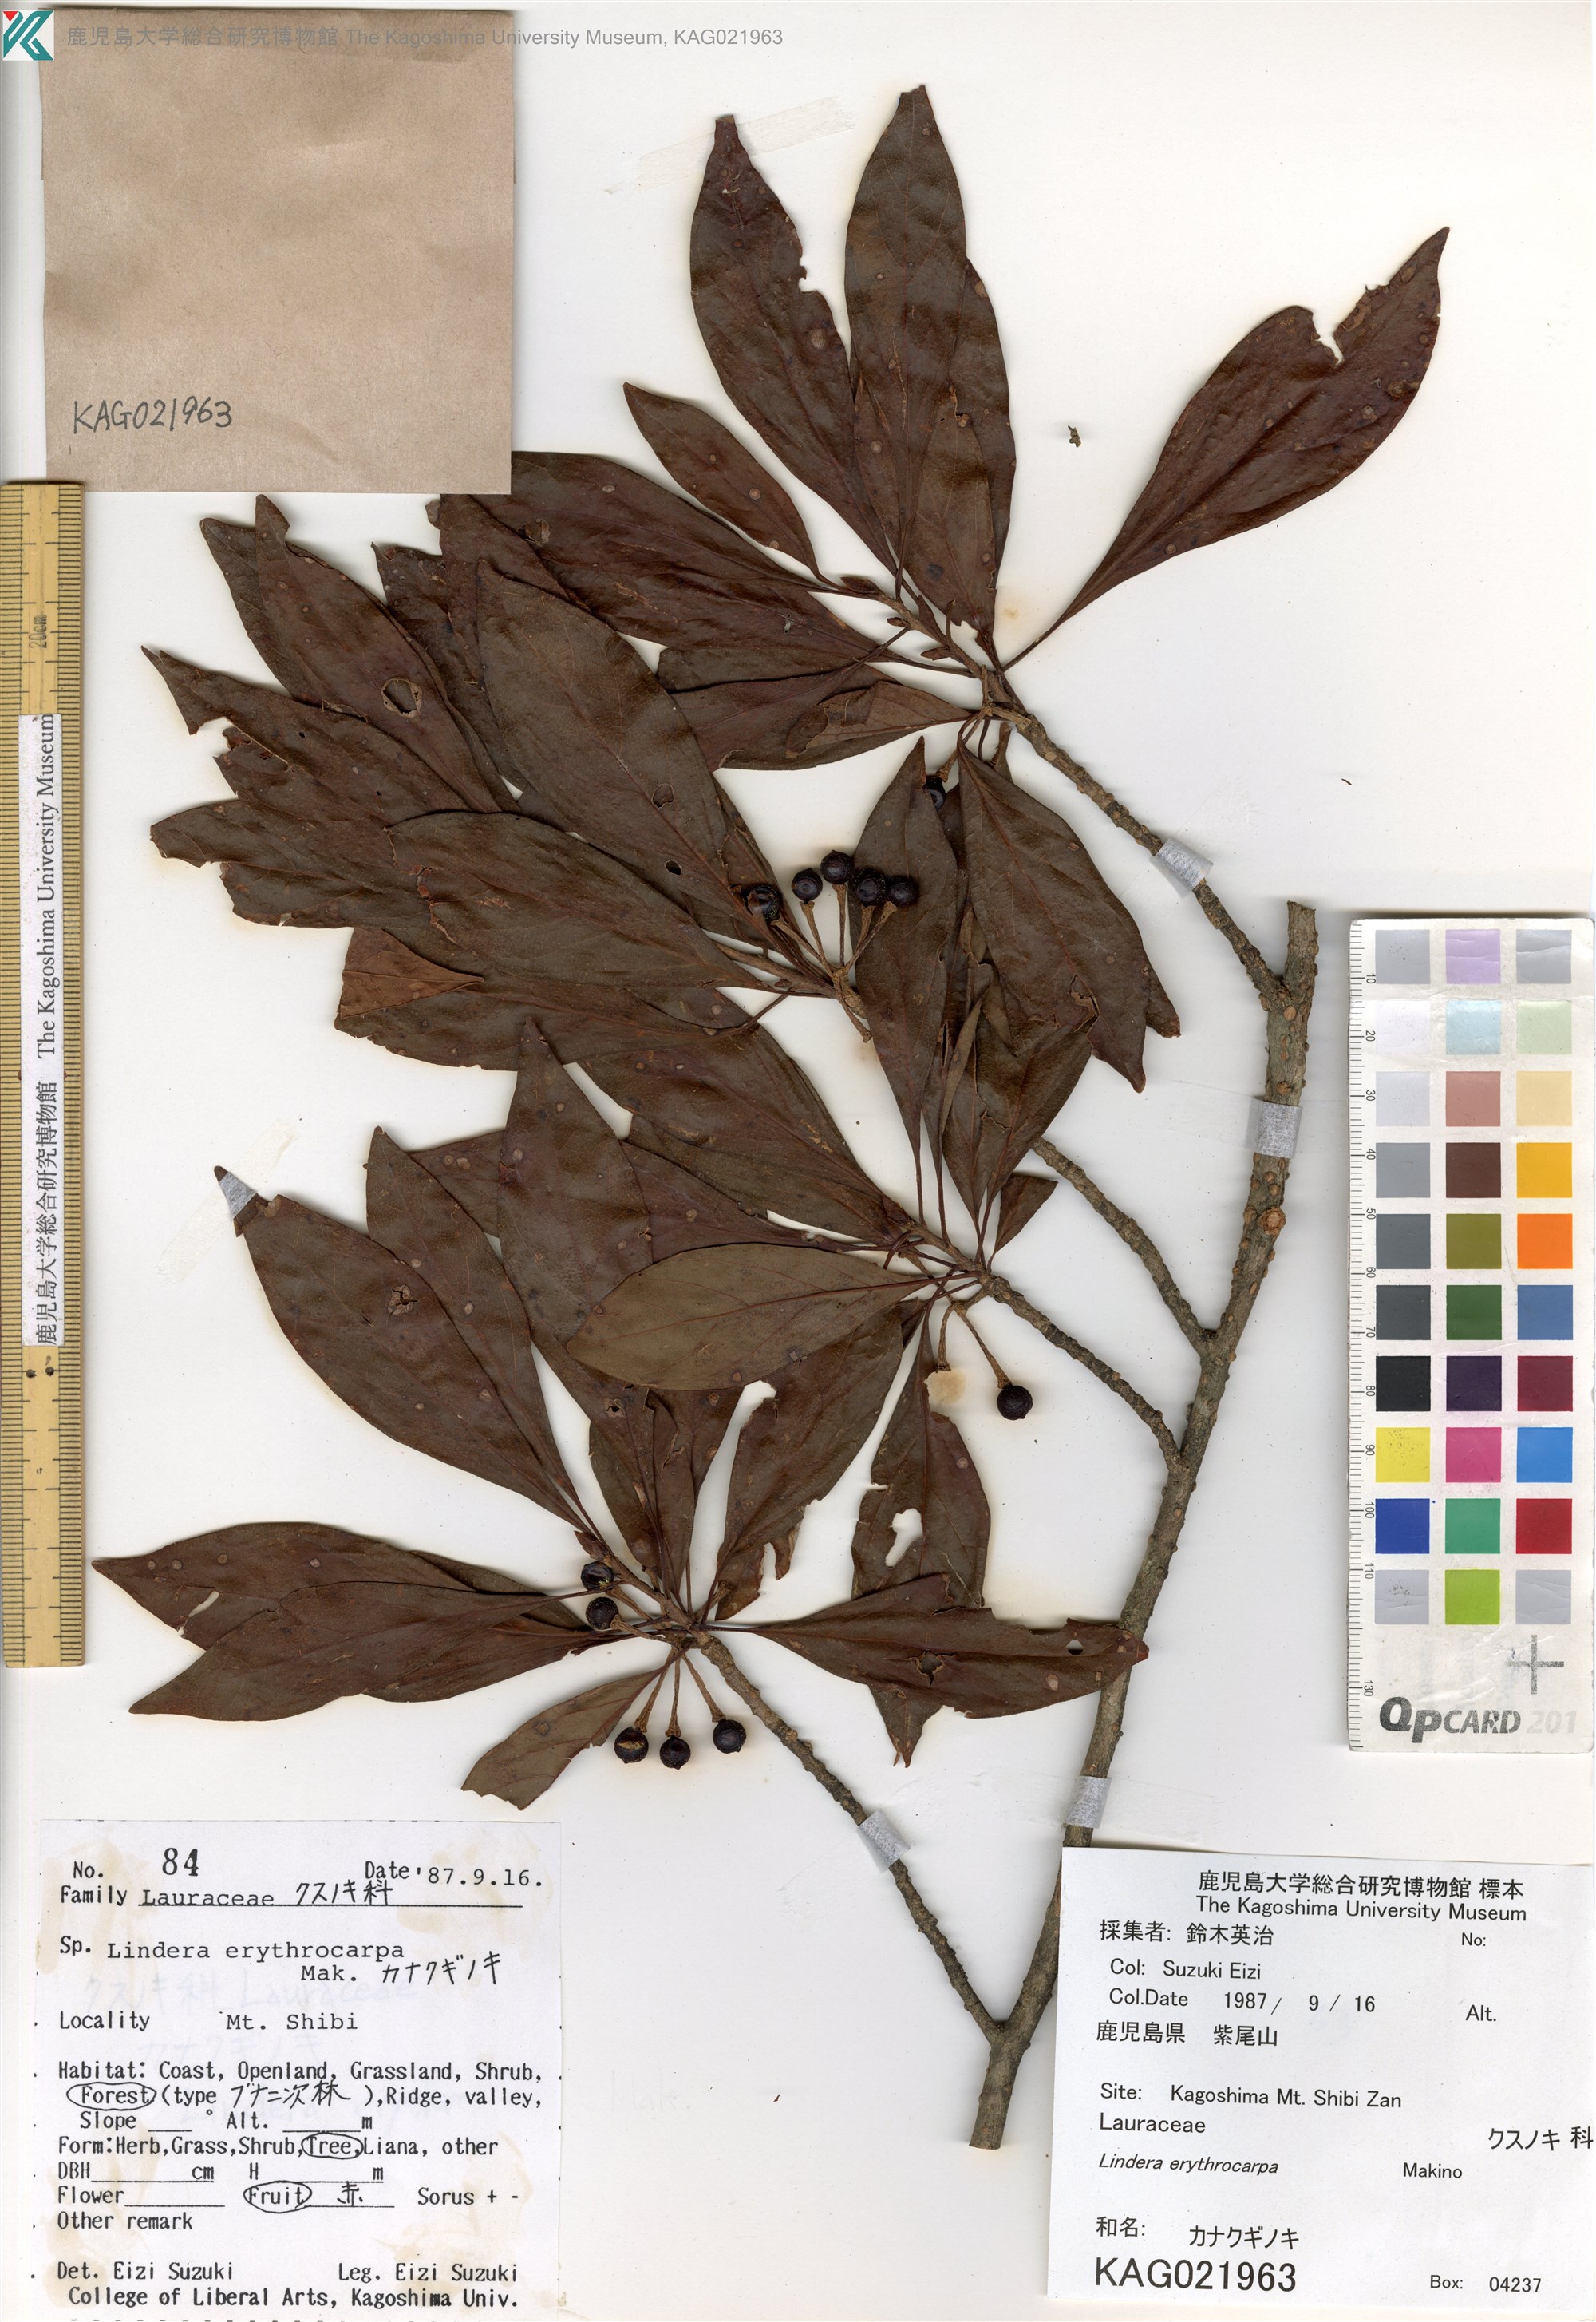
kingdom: Plantae
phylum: Tracheophyta
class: Magnoliopsida
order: Laurales
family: Lauraceae
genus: Lindera
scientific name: Lindera erythrocarpa
